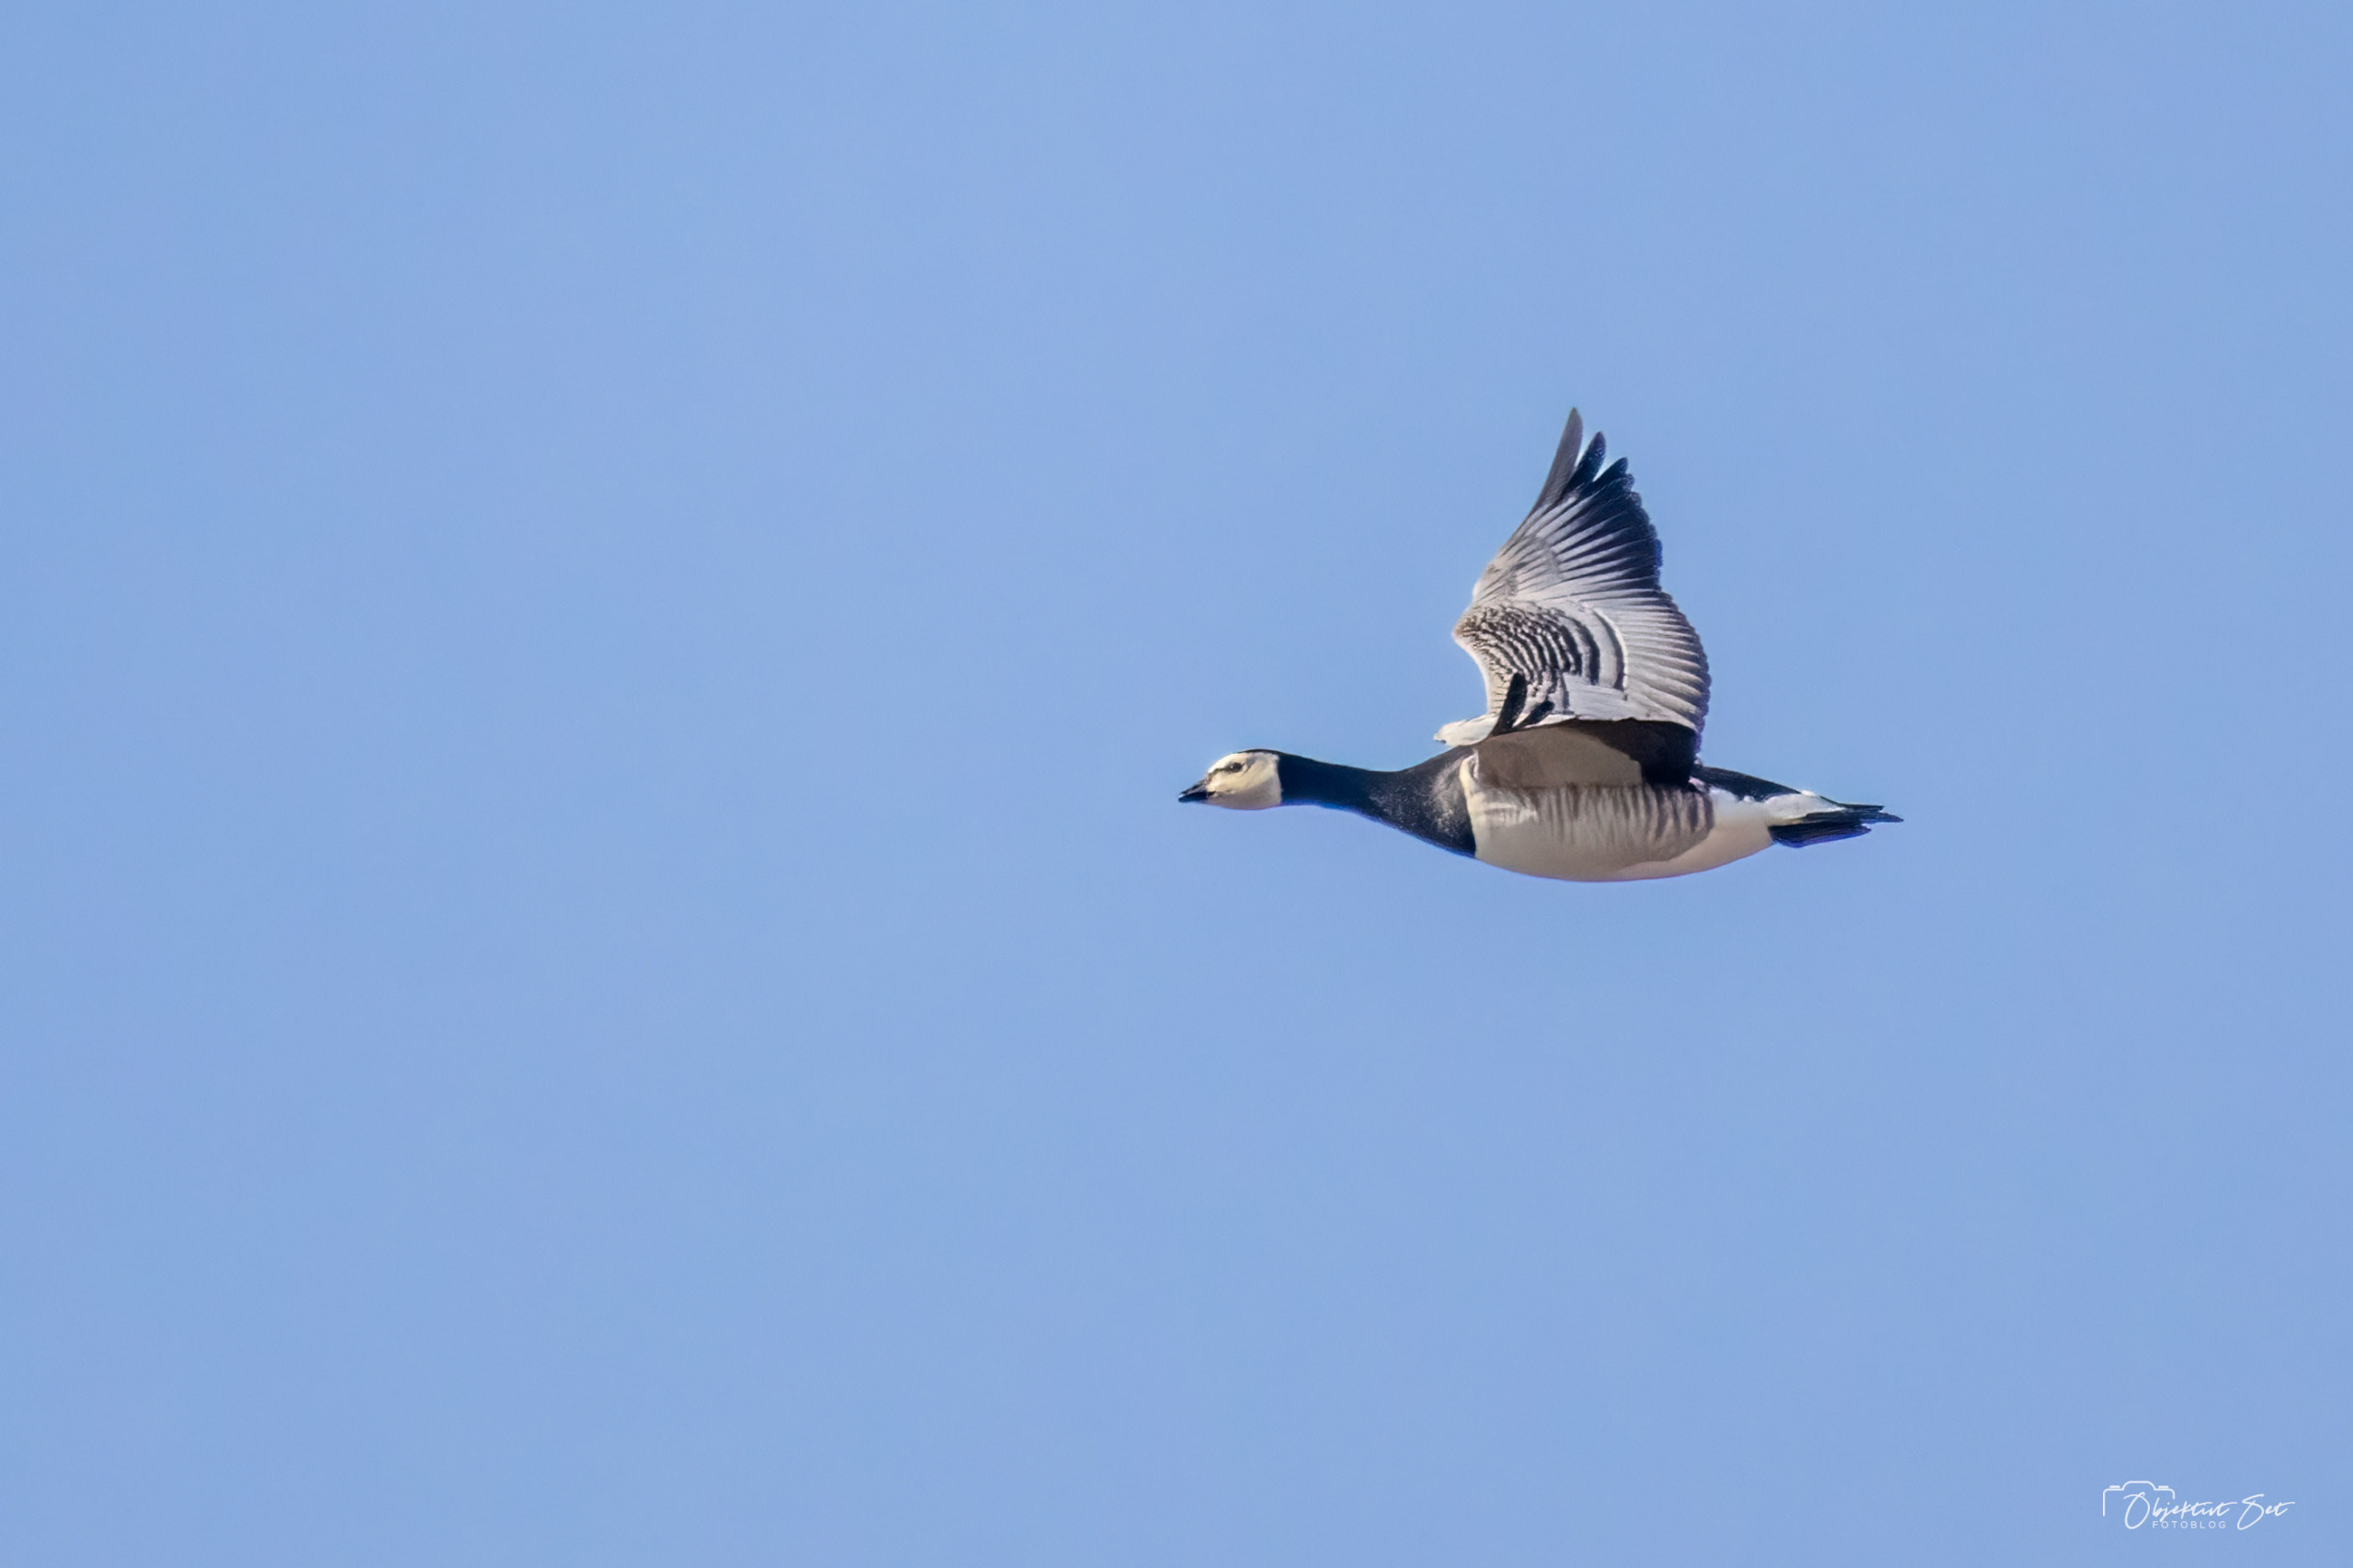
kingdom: Animalia
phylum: Chordata
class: Aves
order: Anseriformes
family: Anatidae
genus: Branta
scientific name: Branta leucopsis
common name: Bramgås
